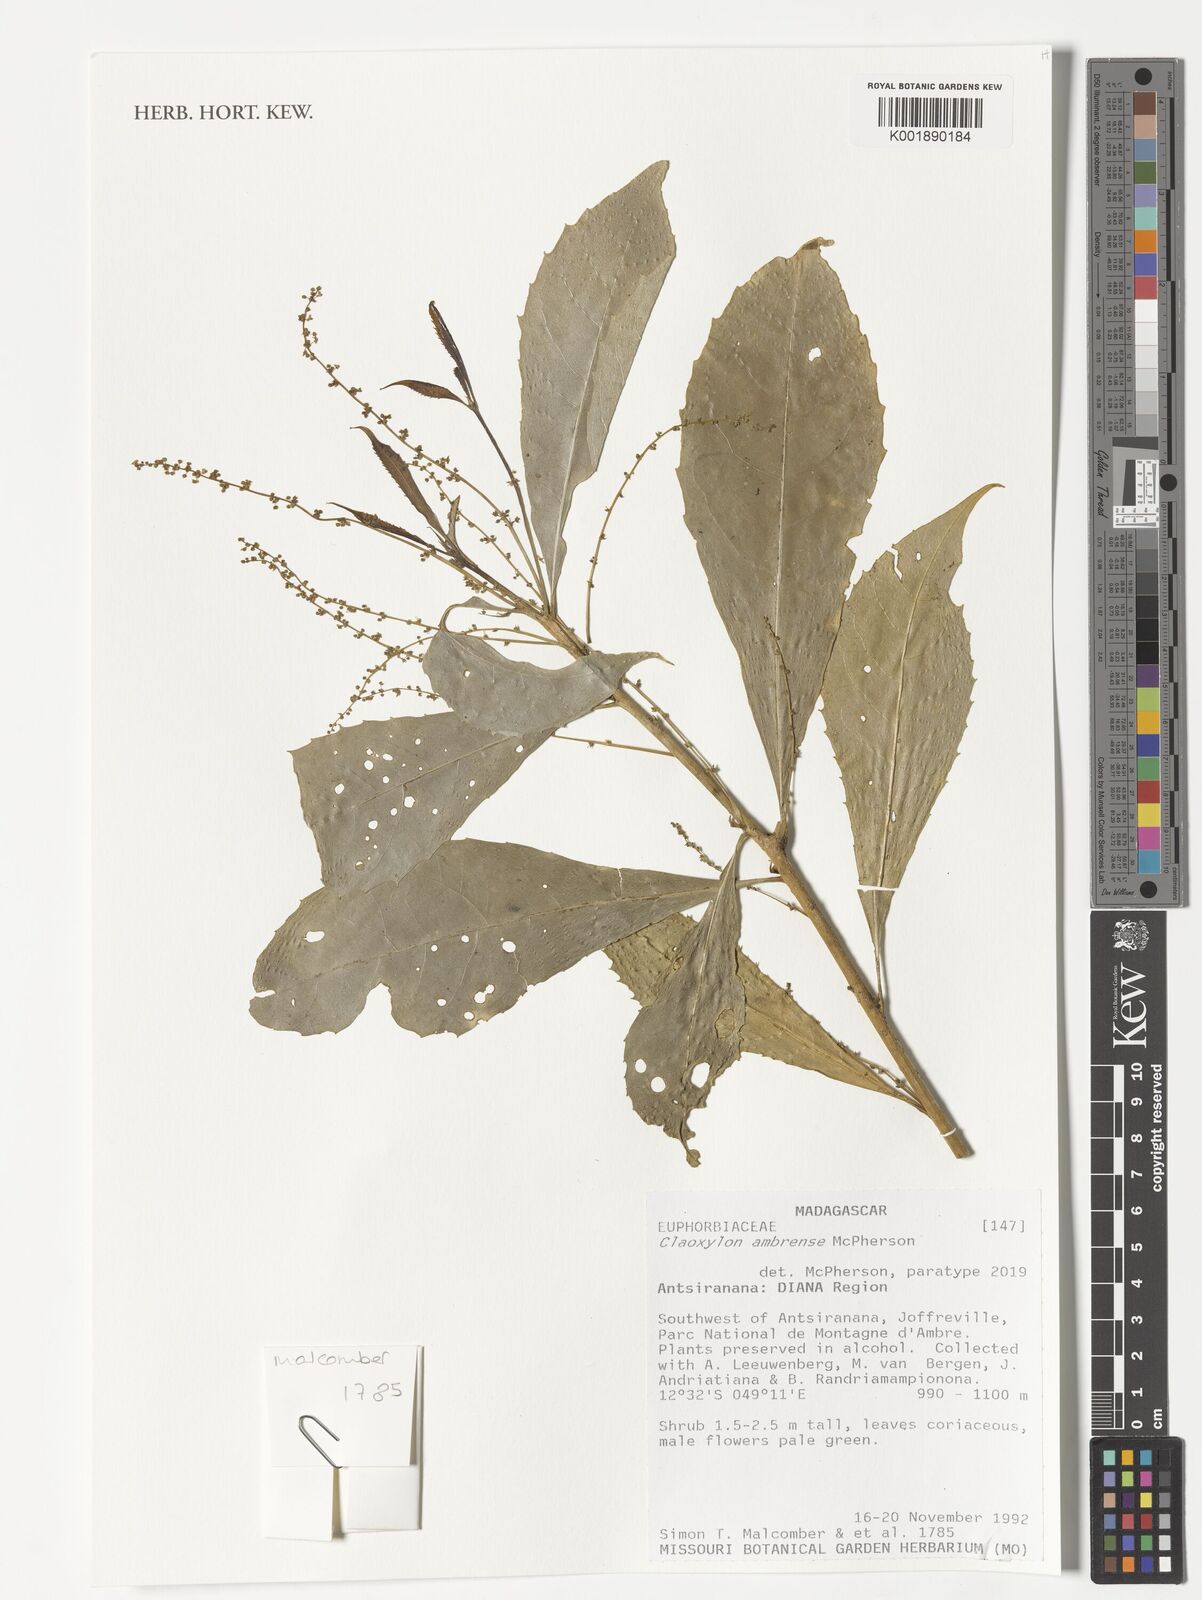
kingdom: Plantae
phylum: Tracheophyta
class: Magnoliopsida
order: Malpighiales
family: Euphorbiaceae
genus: Claoxylon
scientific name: Claoxylon ambrense
